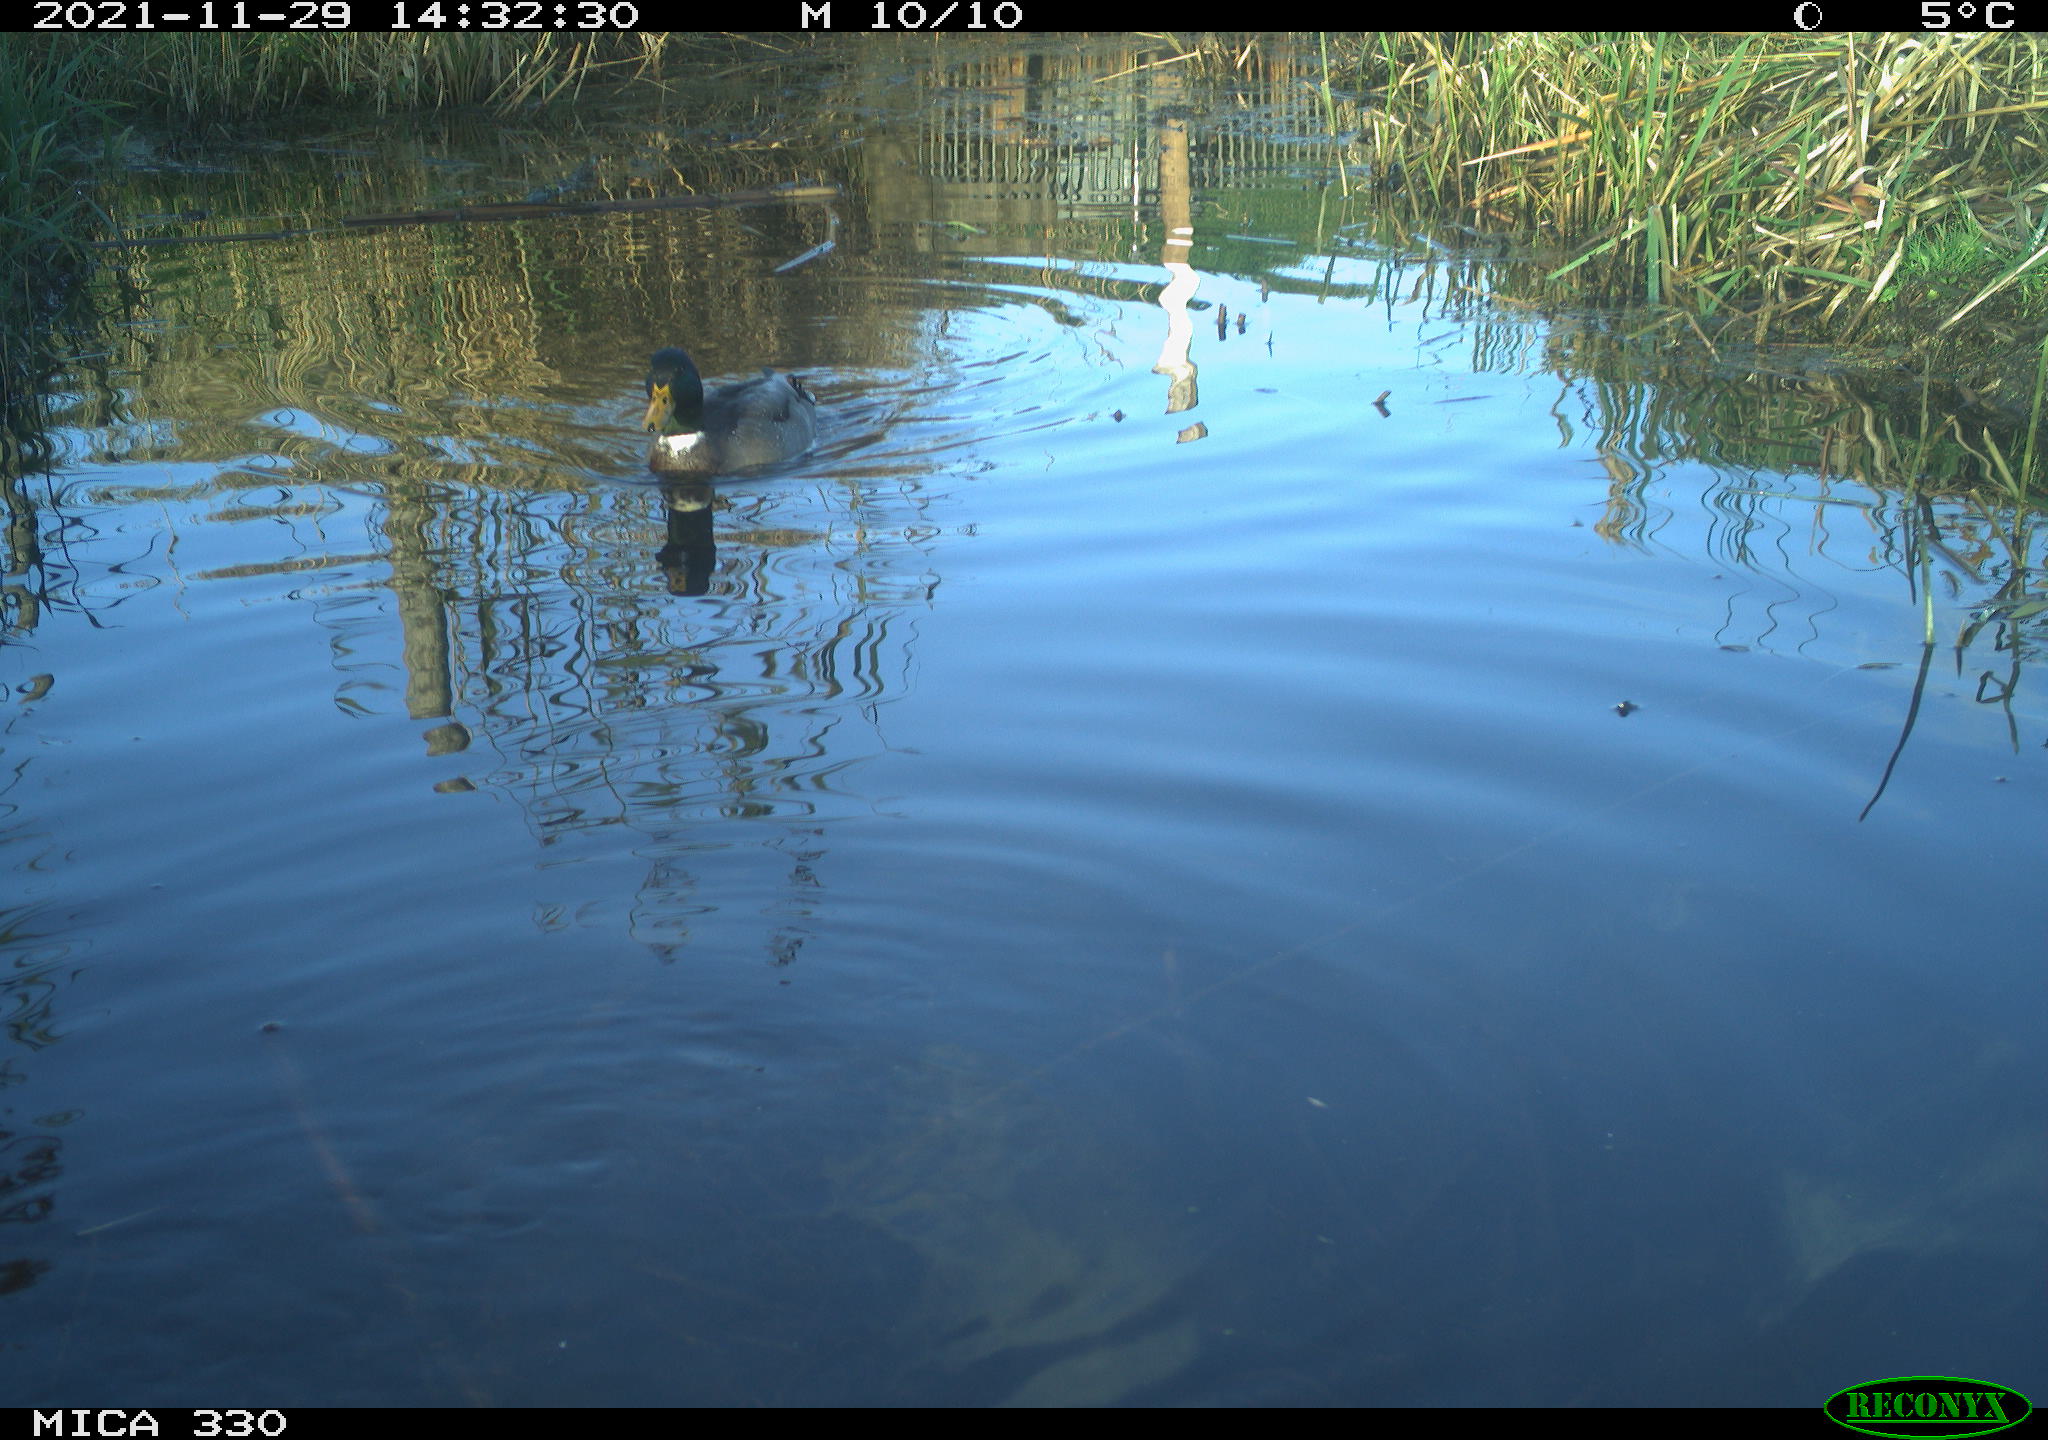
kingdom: Animalia
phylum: Chordata
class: Aves
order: Anseriformes
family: Anatidae
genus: Anas
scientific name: Anas platyrhynchos
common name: Mallard
